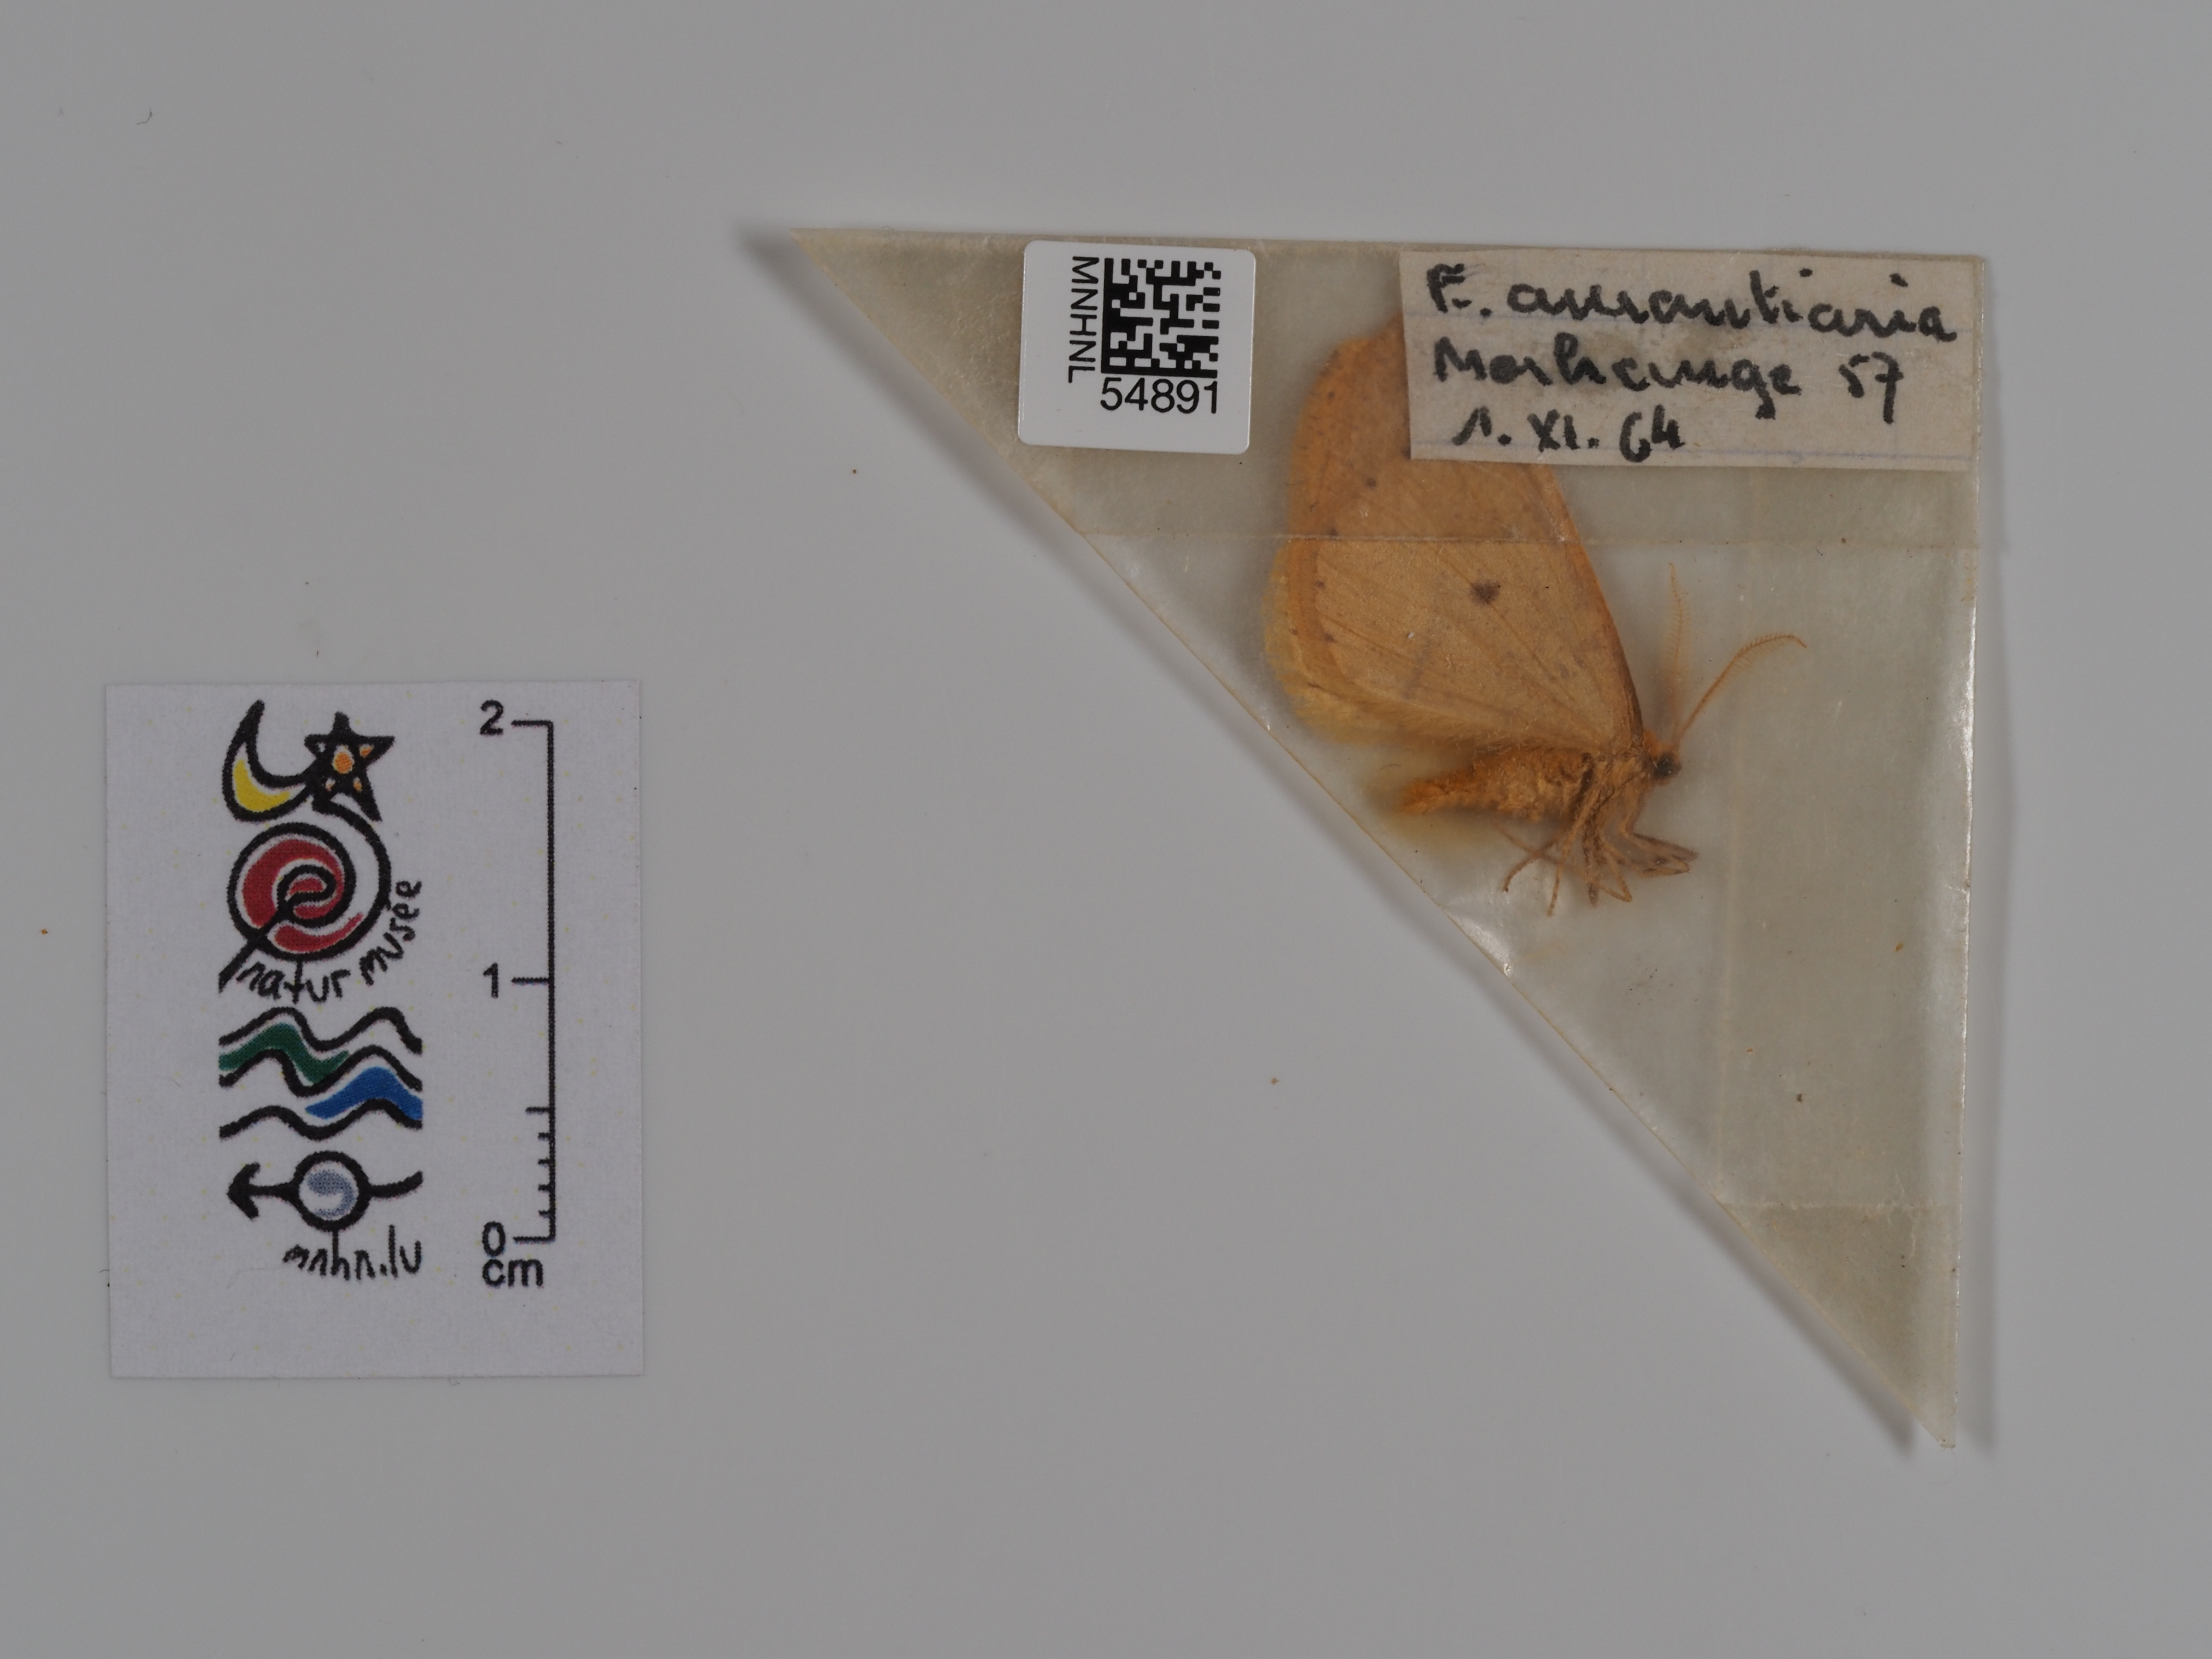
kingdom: Animalia
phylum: Arthropoda
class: Insecta
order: Lepidoptera
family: Geometridae
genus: Erannis
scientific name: Erannis
